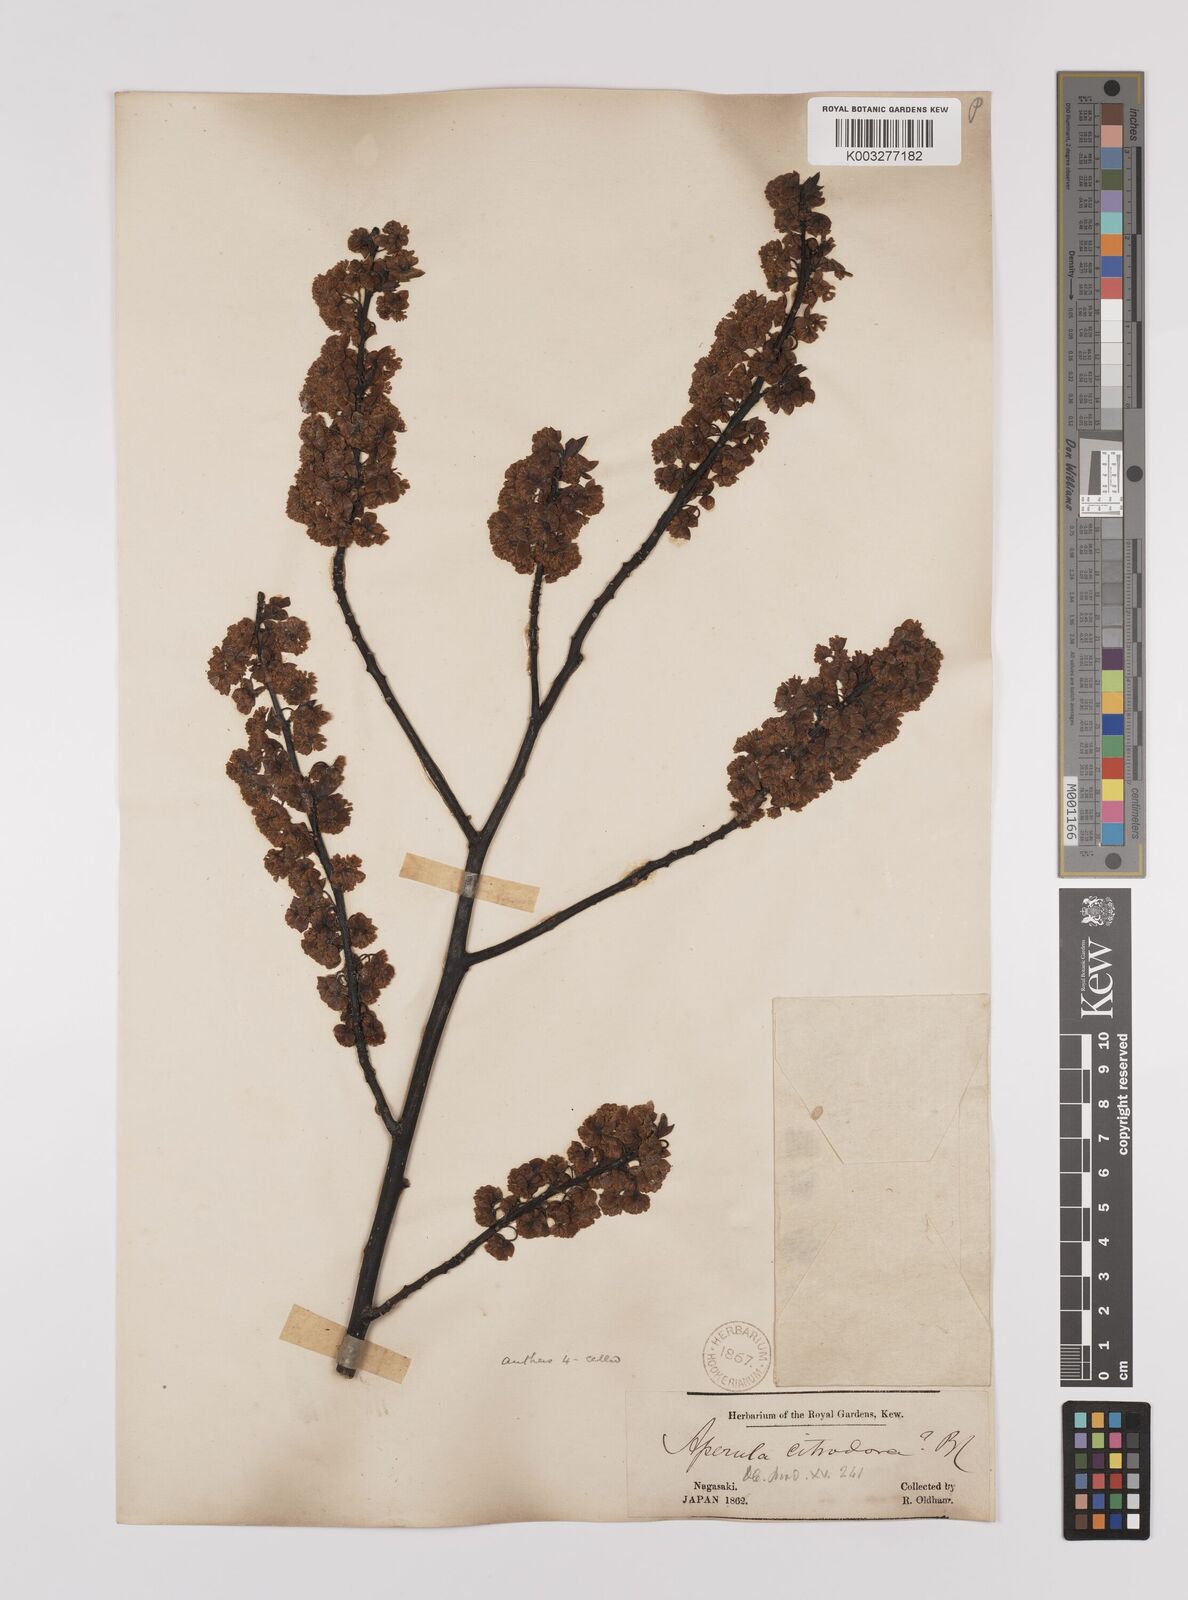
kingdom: Plantae
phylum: Tracheophyta
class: Magnoliopsida
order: Laurales
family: Lauraceae
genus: Lindera
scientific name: Lindera citriodora
